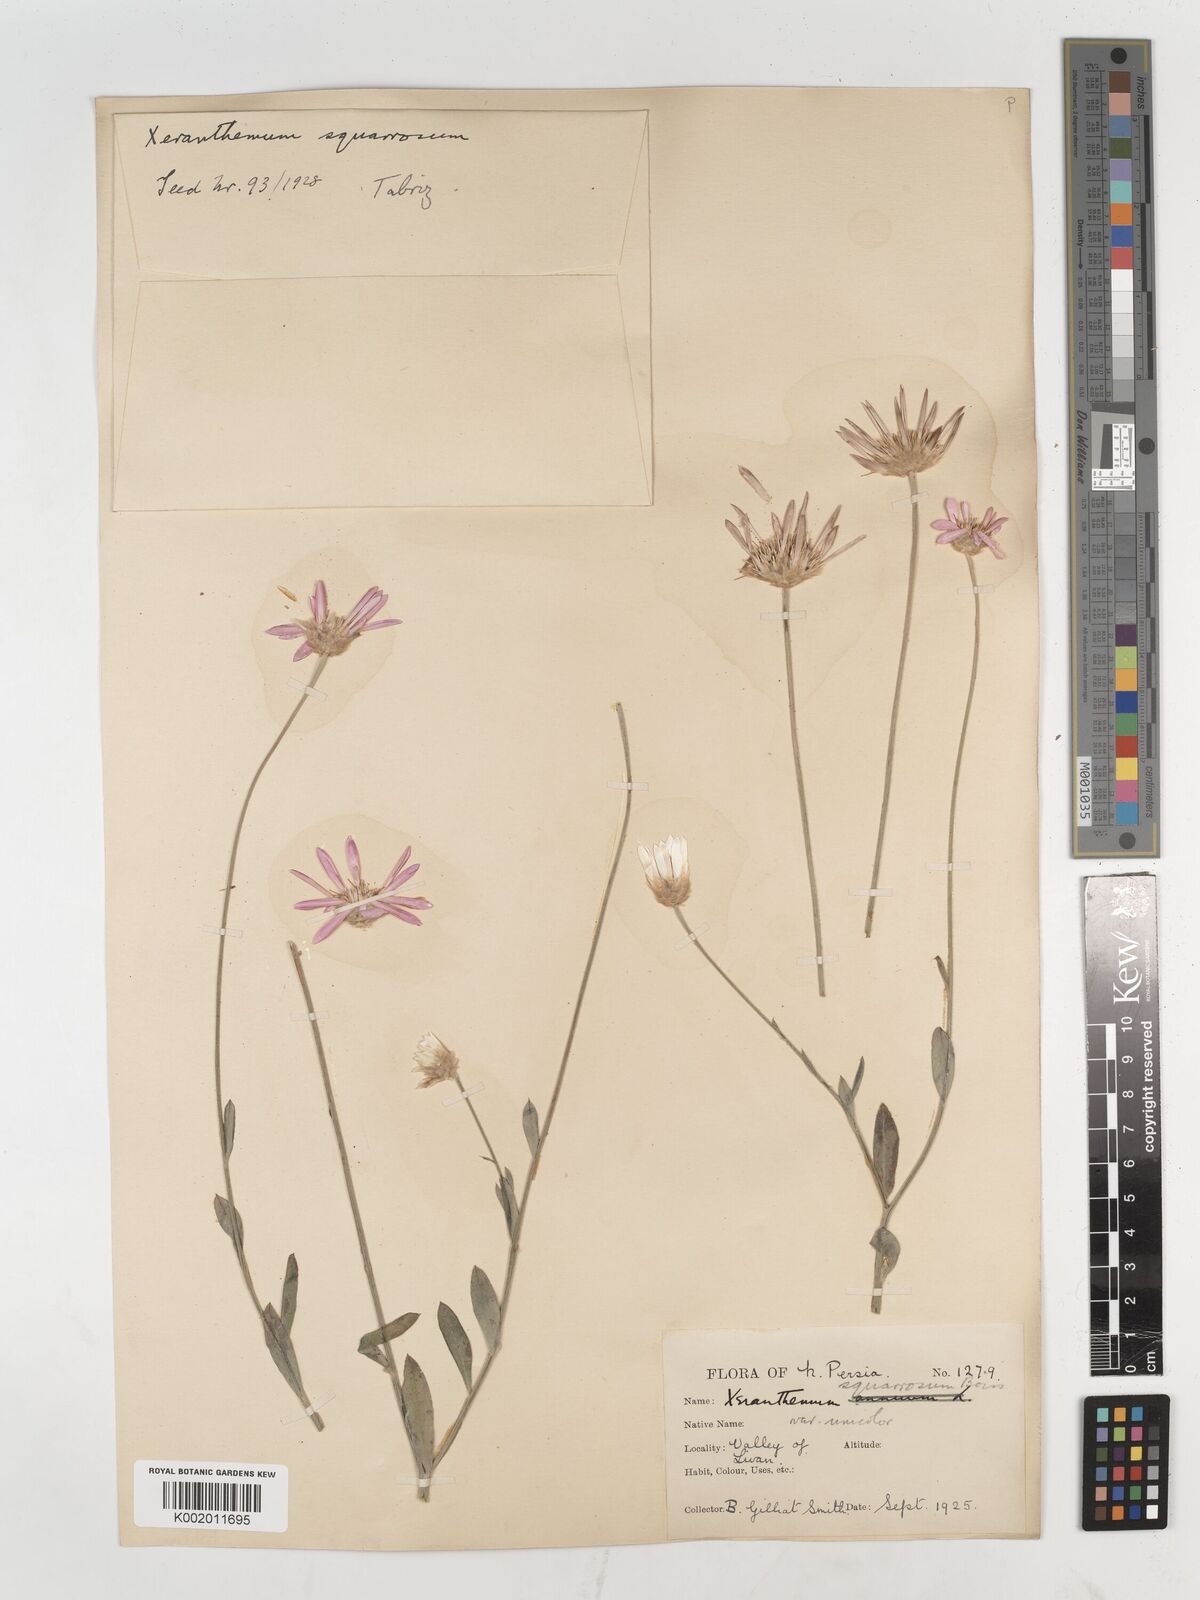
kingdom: Plantae
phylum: Tracheophyta
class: Magnoliopsida
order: Asterales
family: Asteraceae
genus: Xeranthemum
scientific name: Xeranthemum squarrosum
